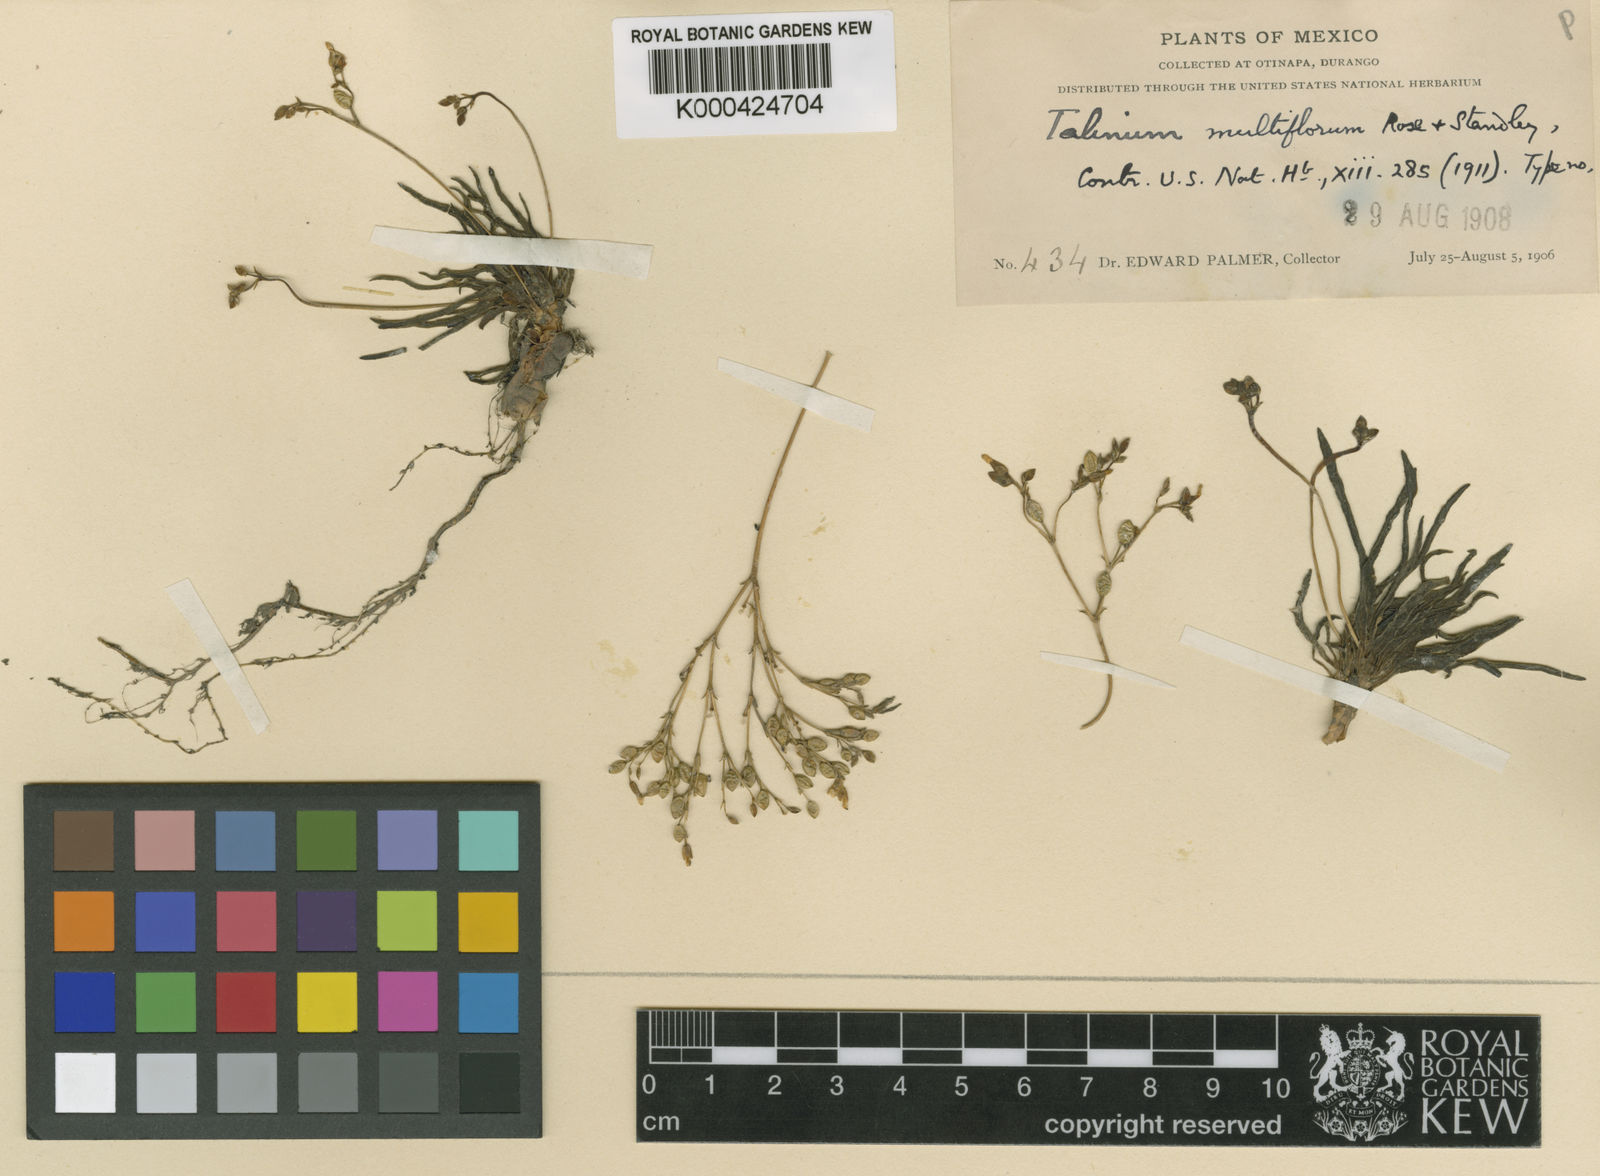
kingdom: Plantae
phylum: Tracheophyta
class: Magnoliopsida
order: Caryophyllales
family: Montiaceae
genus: Phemeranthus
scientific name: Phemeranthus multiflorus
